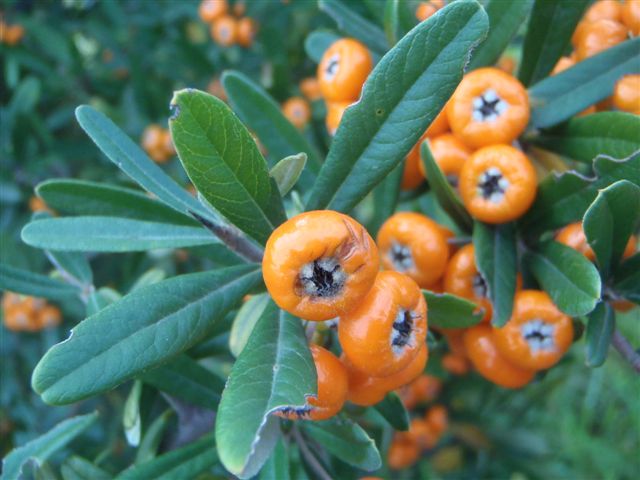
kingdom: Plantae
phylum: Tracheophyta
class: Magnoliopsida
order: Rosales
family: Rosaceae
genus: Pyracantha
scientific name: Pyracantha angustifolia
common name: Narrowleaf firethorn
